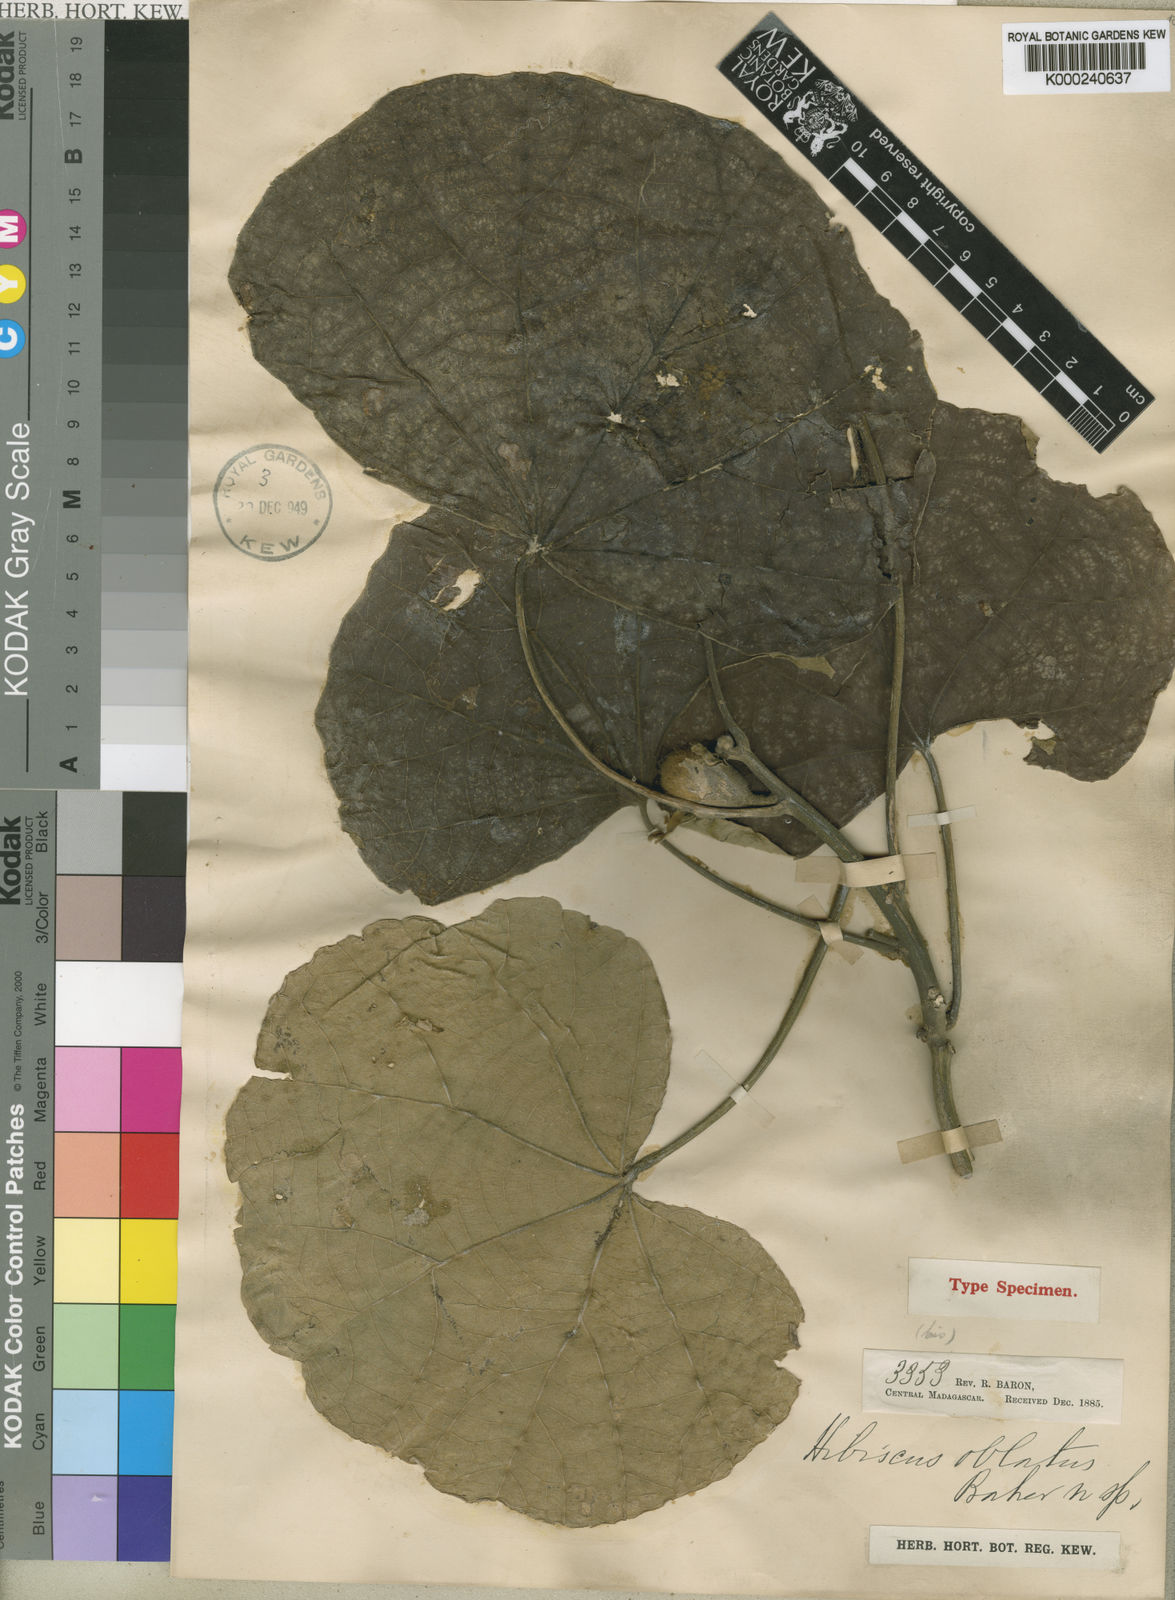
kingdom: Plantae
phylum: Tracheophyta
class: Magnoliopsida
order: Malvales
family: Malvaceae
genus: Hibiscus
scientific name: Hibiscus
